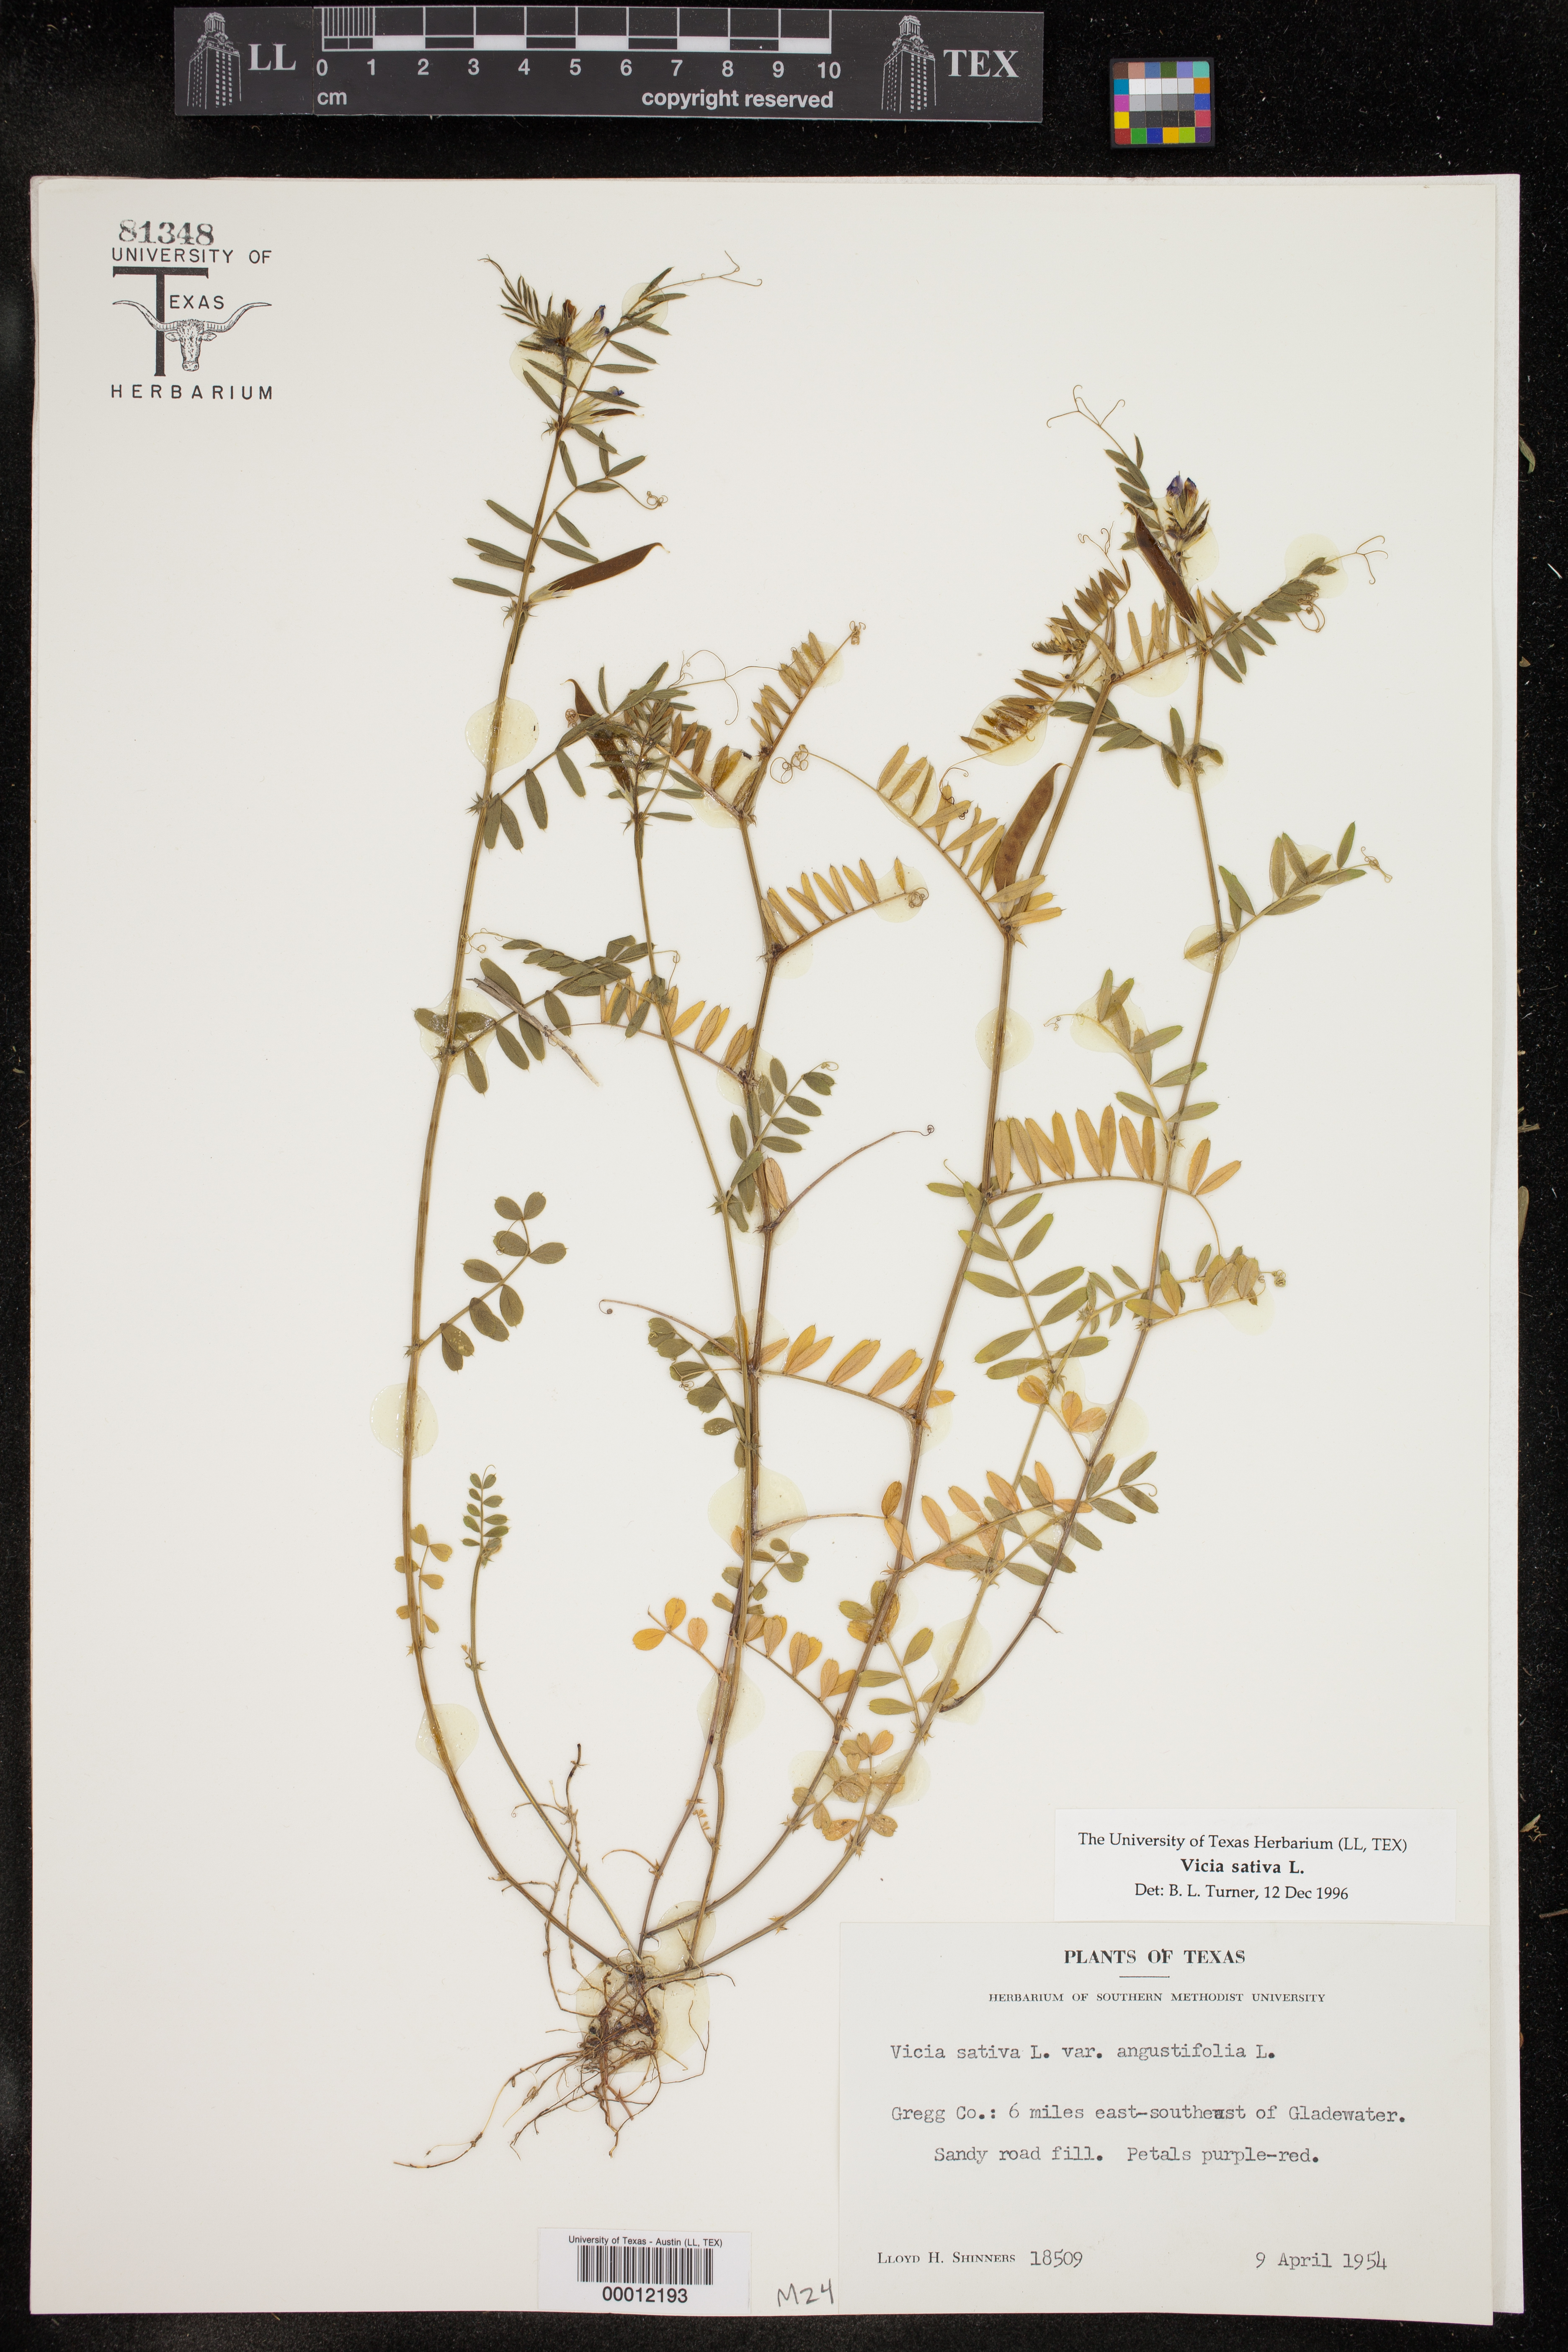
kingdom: Plantae
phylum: Tracheophyta
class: Magnoliopsida
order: Fabales
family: Fabaceae
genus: Vicia
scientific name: Vicia sativa
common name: Garden vetch
